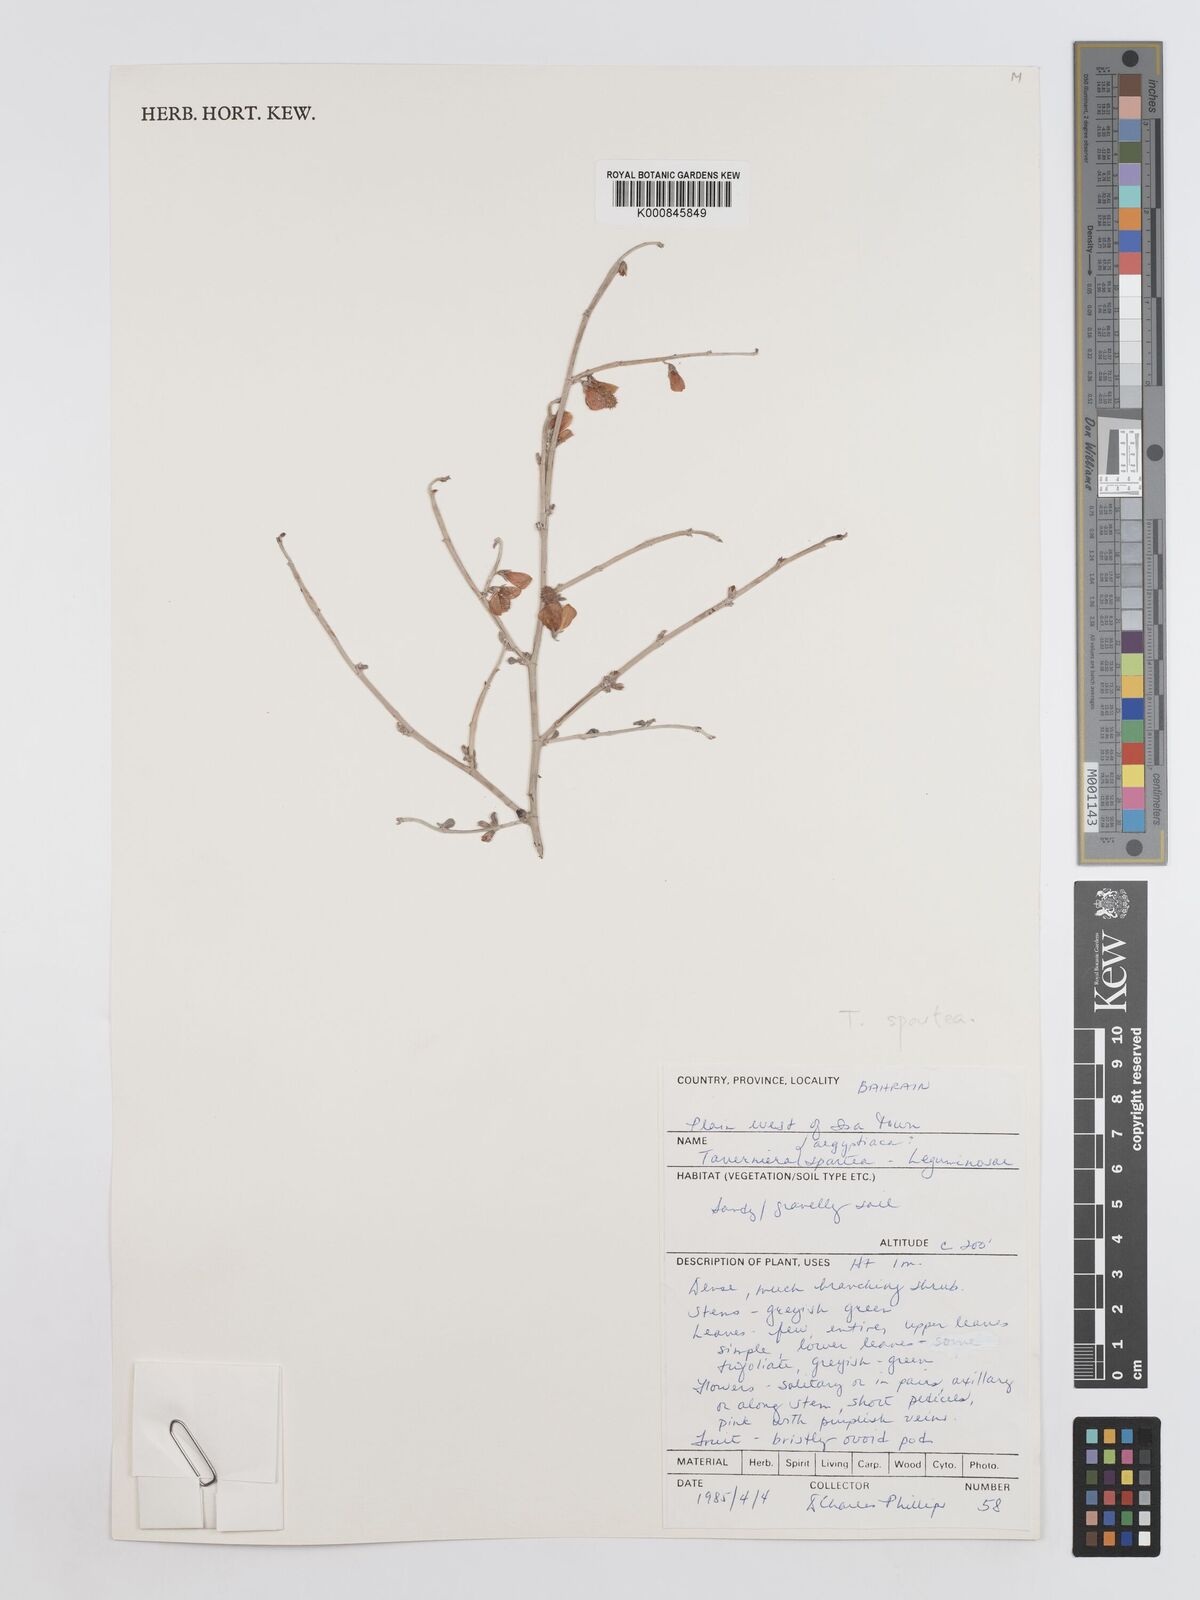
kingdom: Plantae
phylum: Tracheophyta
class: Magnoliopsida
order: Fabales
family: Fabaceae
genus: Taverniera
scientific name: Taverniera spartea
